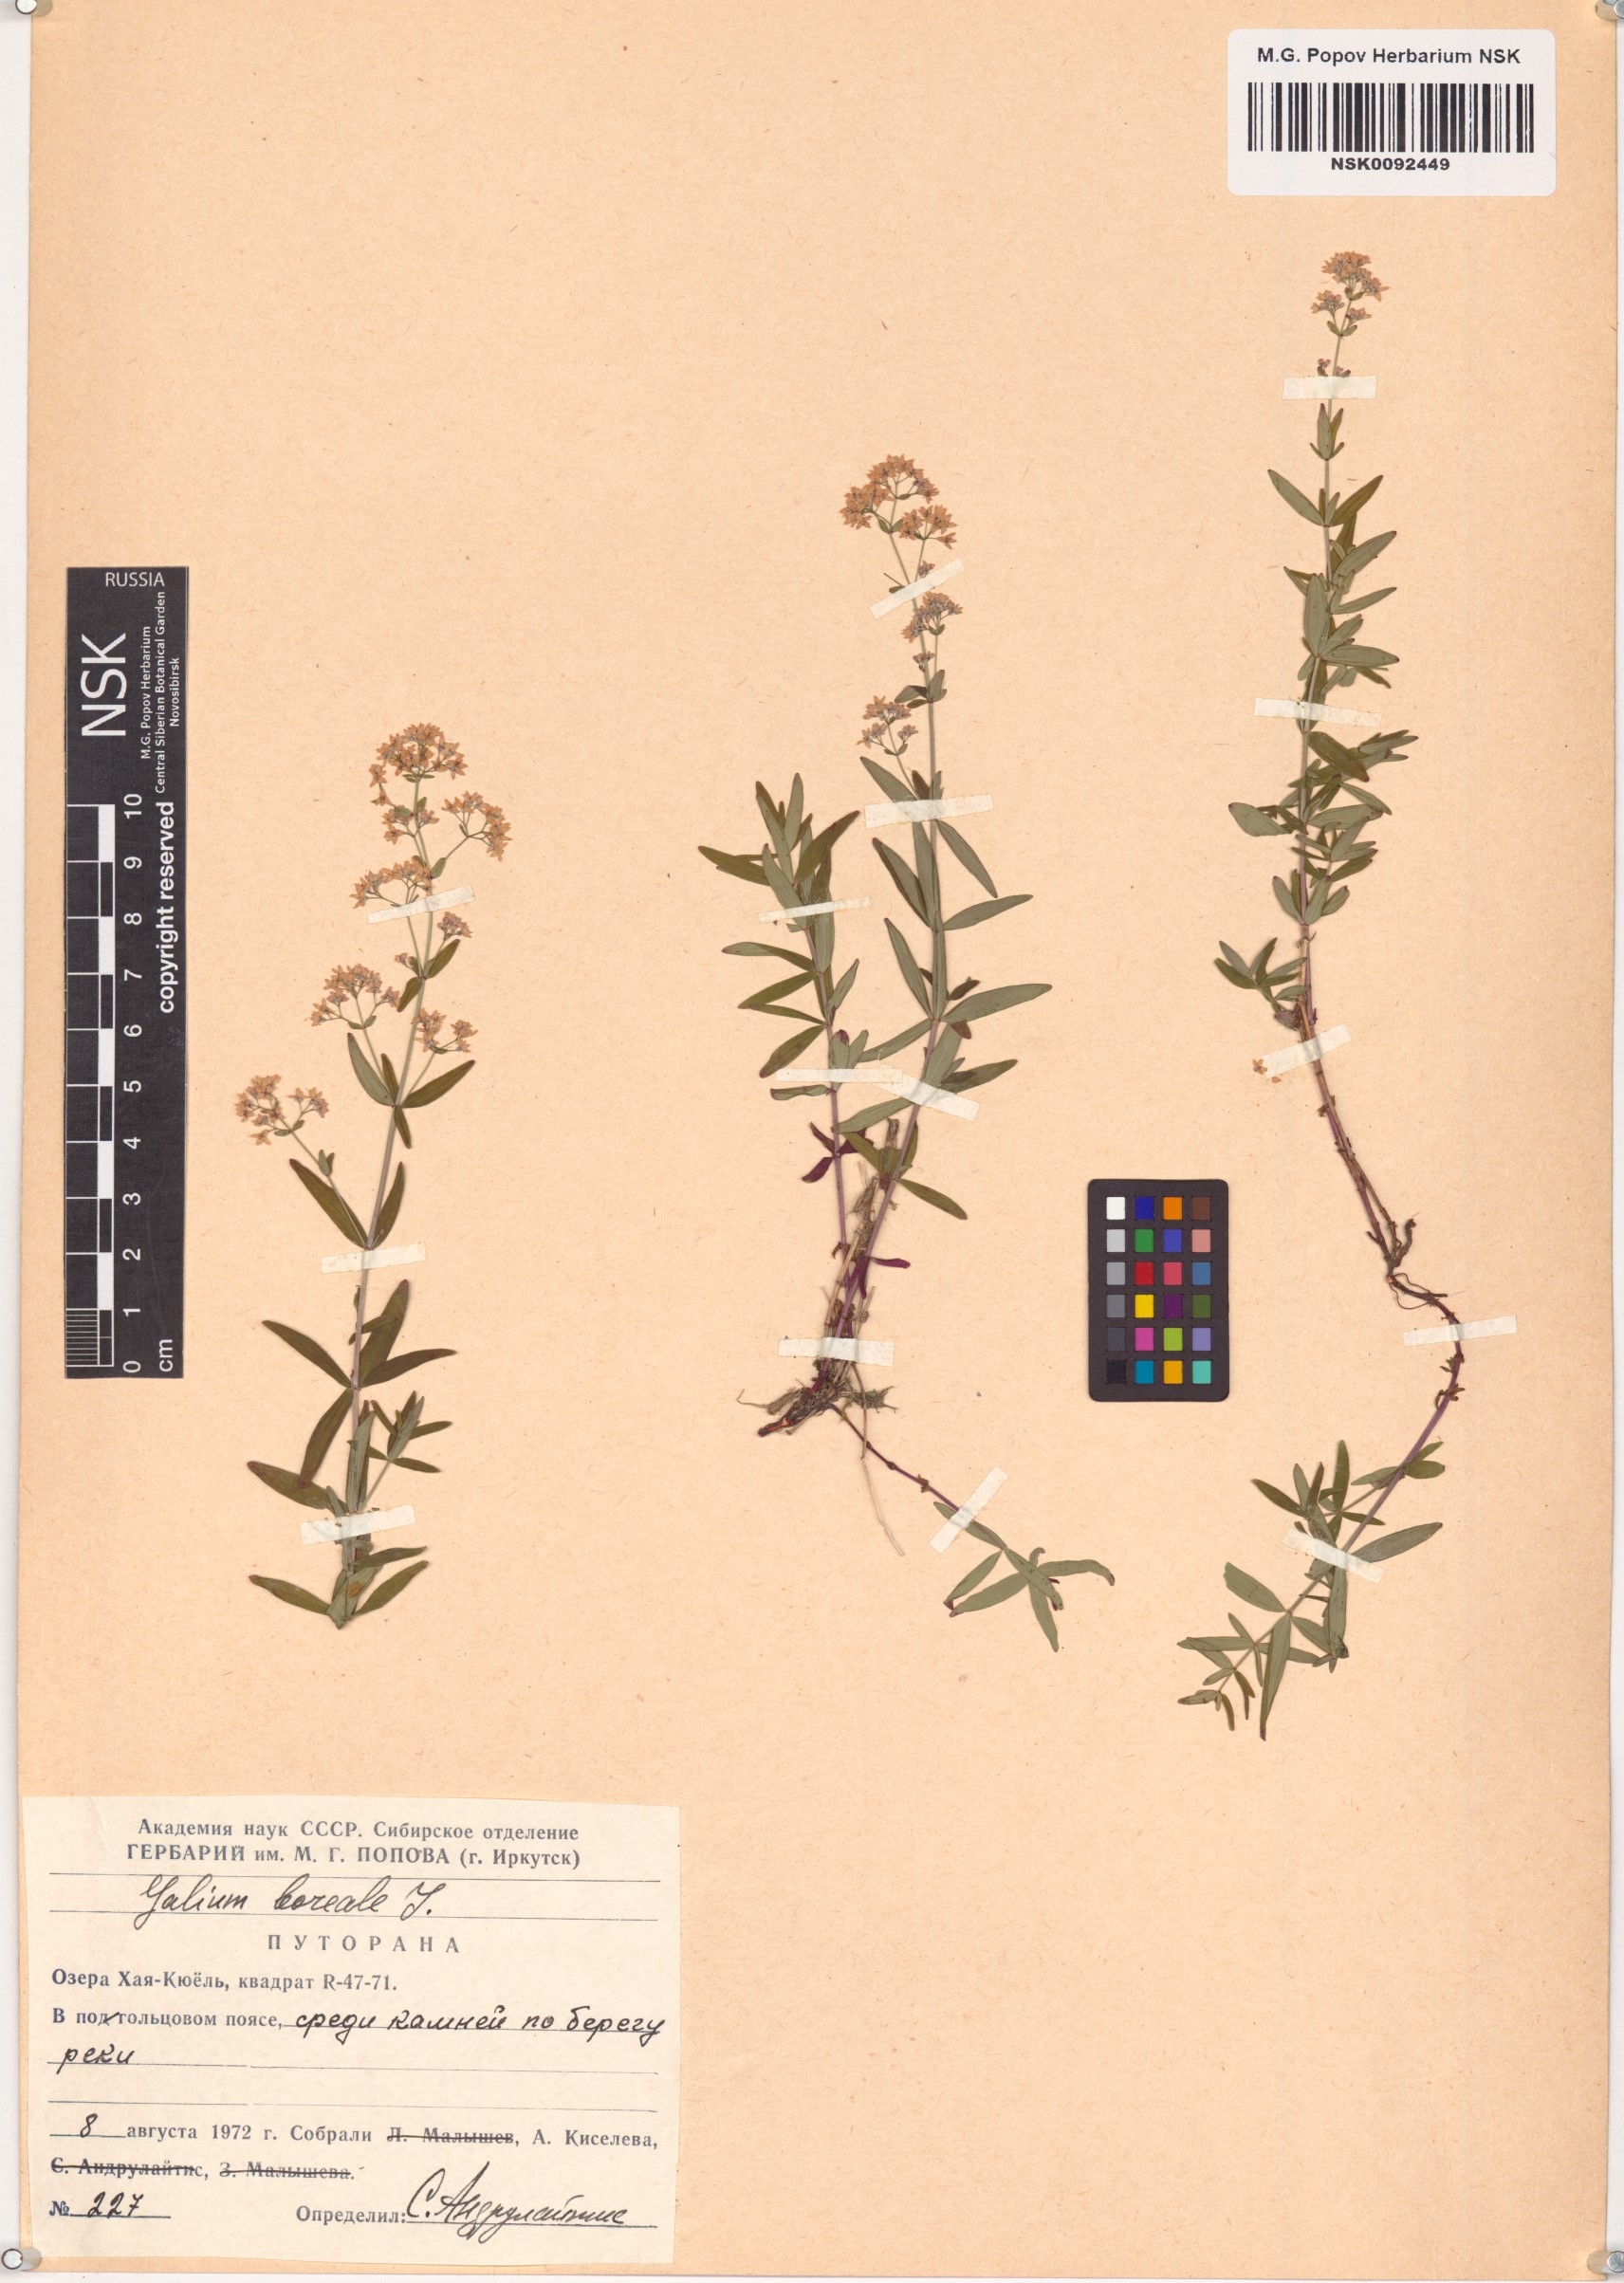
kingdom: Plantae
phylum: Tracheophyta
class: Magnoliopsida
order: Gentianales
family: Rubiaceae
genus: Galium
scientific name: Galium boreale
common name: Northern bedstraw
